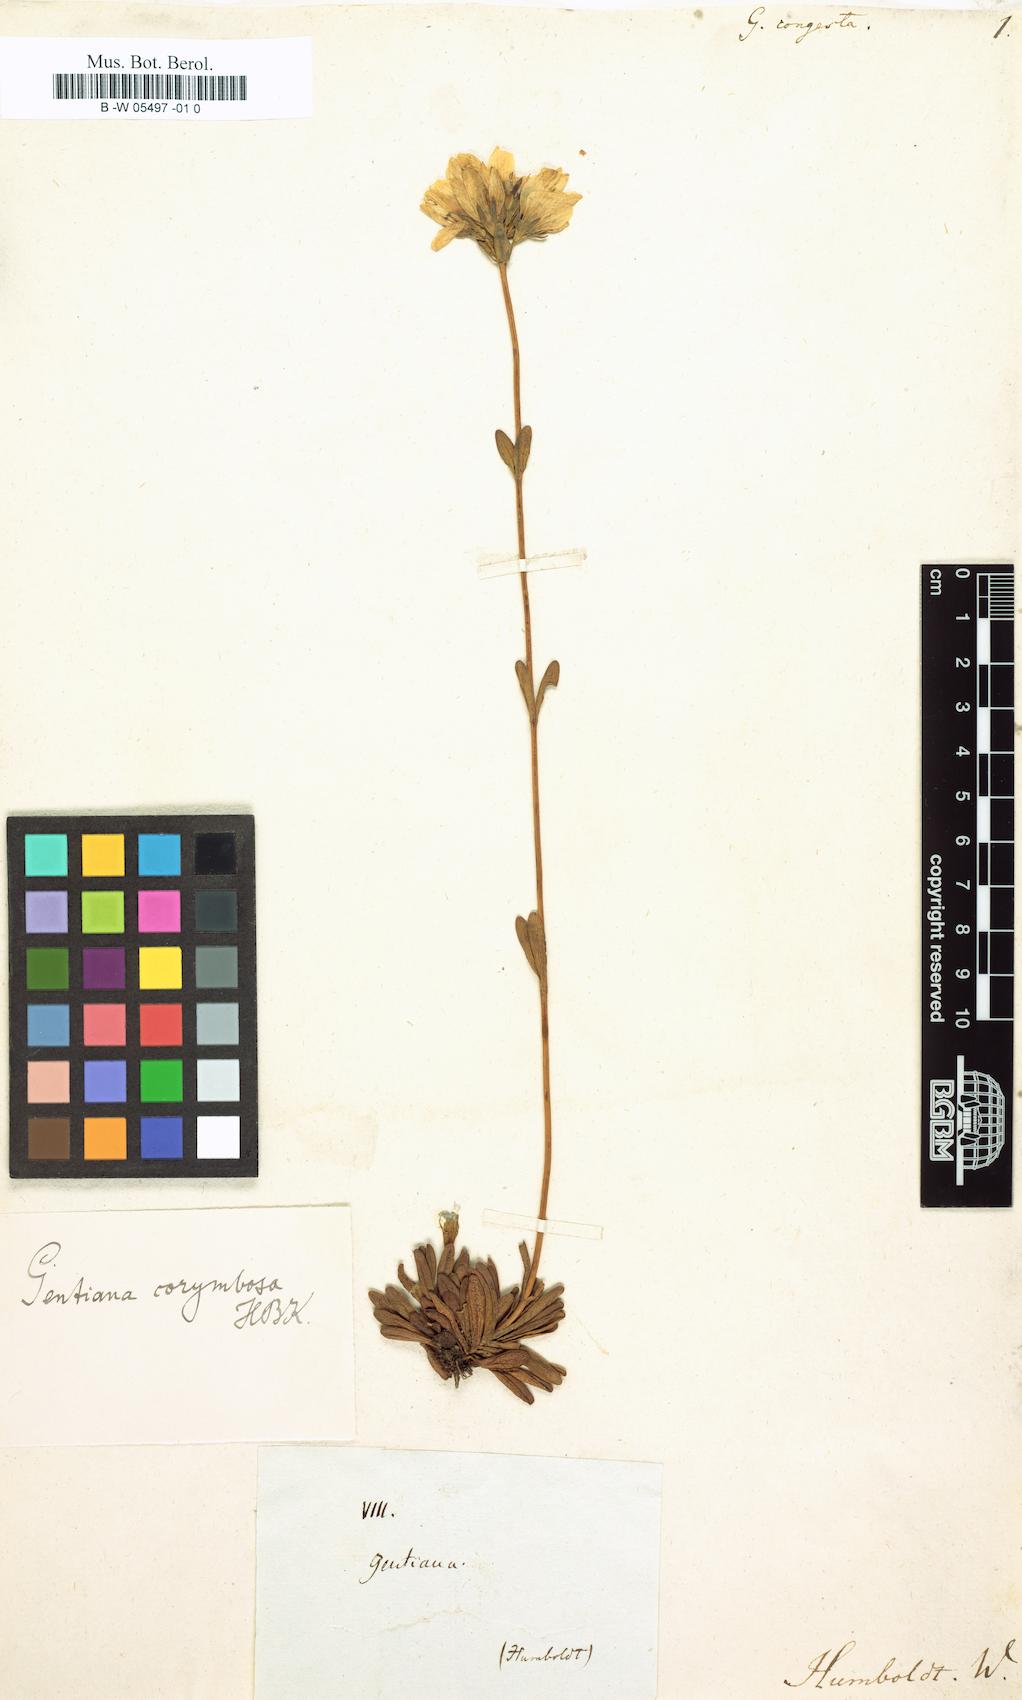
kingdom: Plantae
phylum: Tracheophyta
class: Magnoliopsida
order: Gentianales
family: Gentianaceae
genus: Gentianella
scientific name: Gentianella corymbosa
